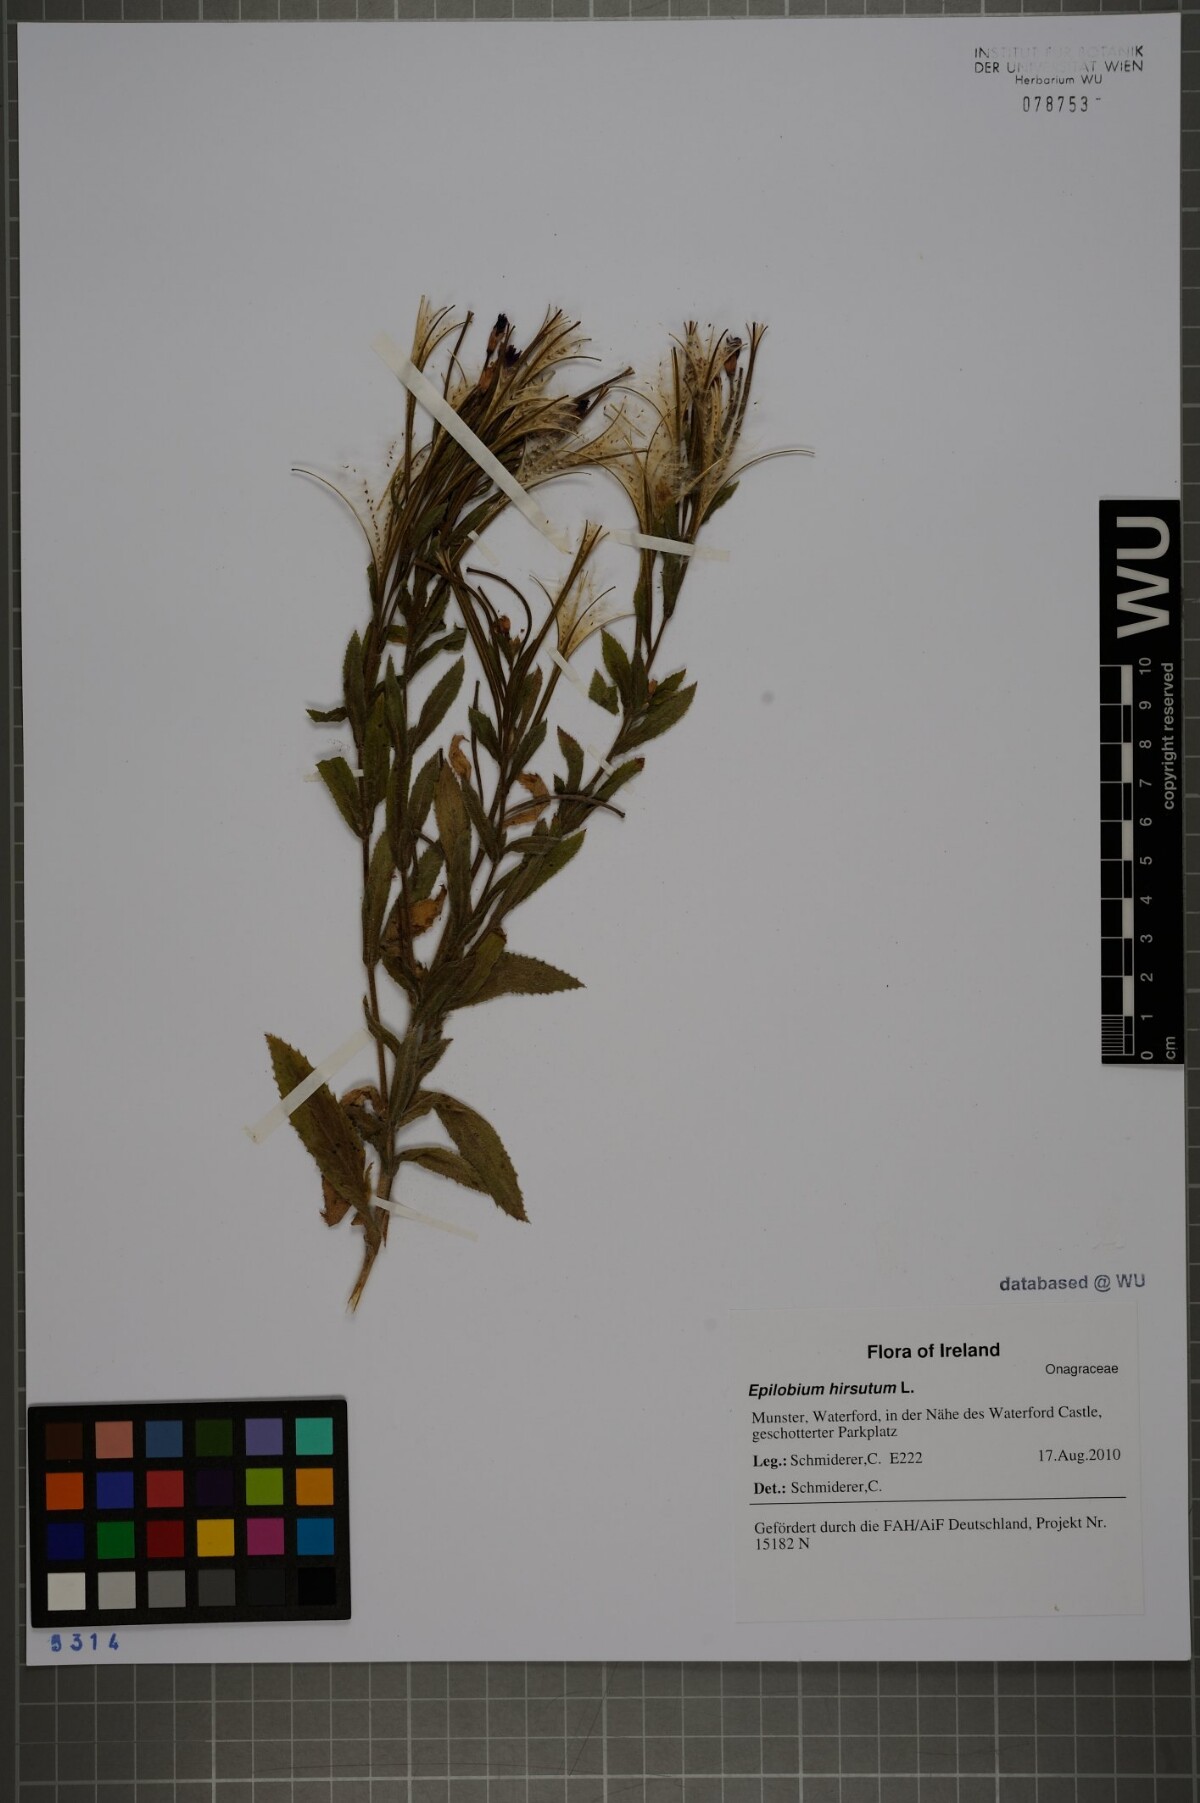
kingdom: Plantae
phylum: Tracheophyta
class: Magnoliopsida
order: Myrtales
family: Onagraceae
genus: Epilobium
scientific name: Epilobium hirsutum
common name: Great willowherb
